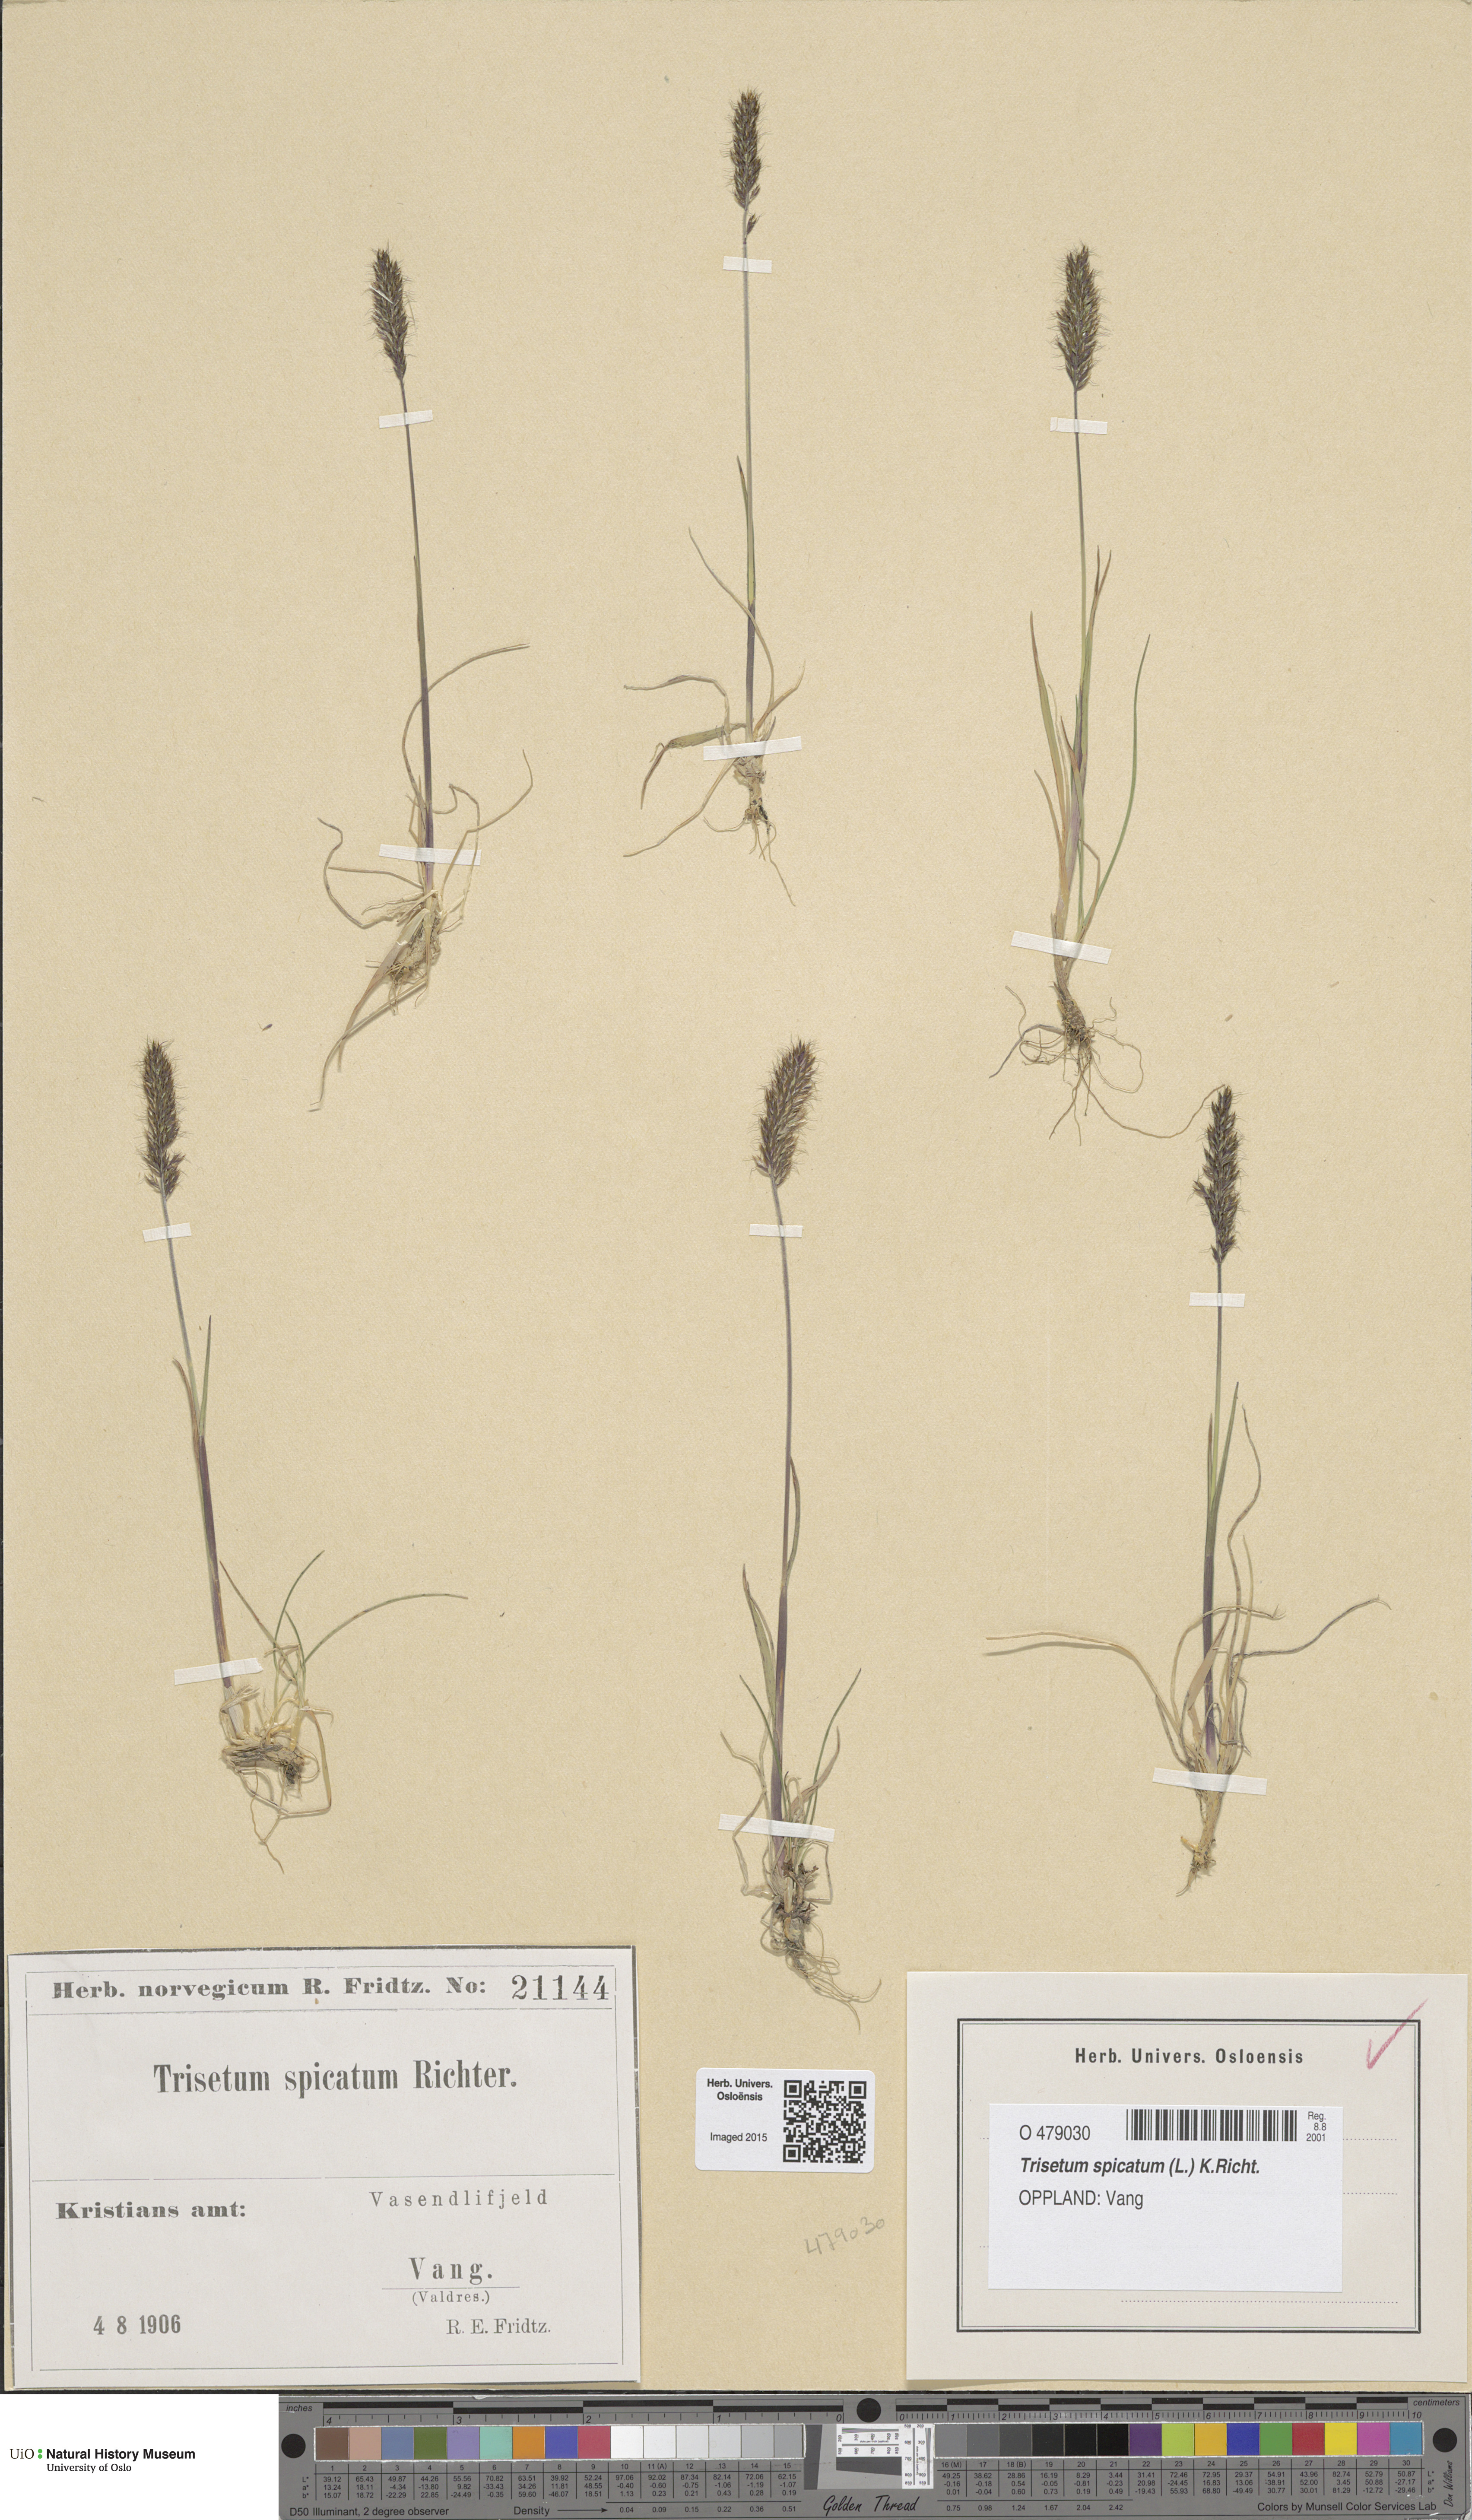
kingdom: Plantae
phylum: Tracheophyta
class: Liliopsida
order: Poales
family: Poaceae
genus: Koeleria
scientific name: Koeleria spicata
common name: Mountain trisetum
